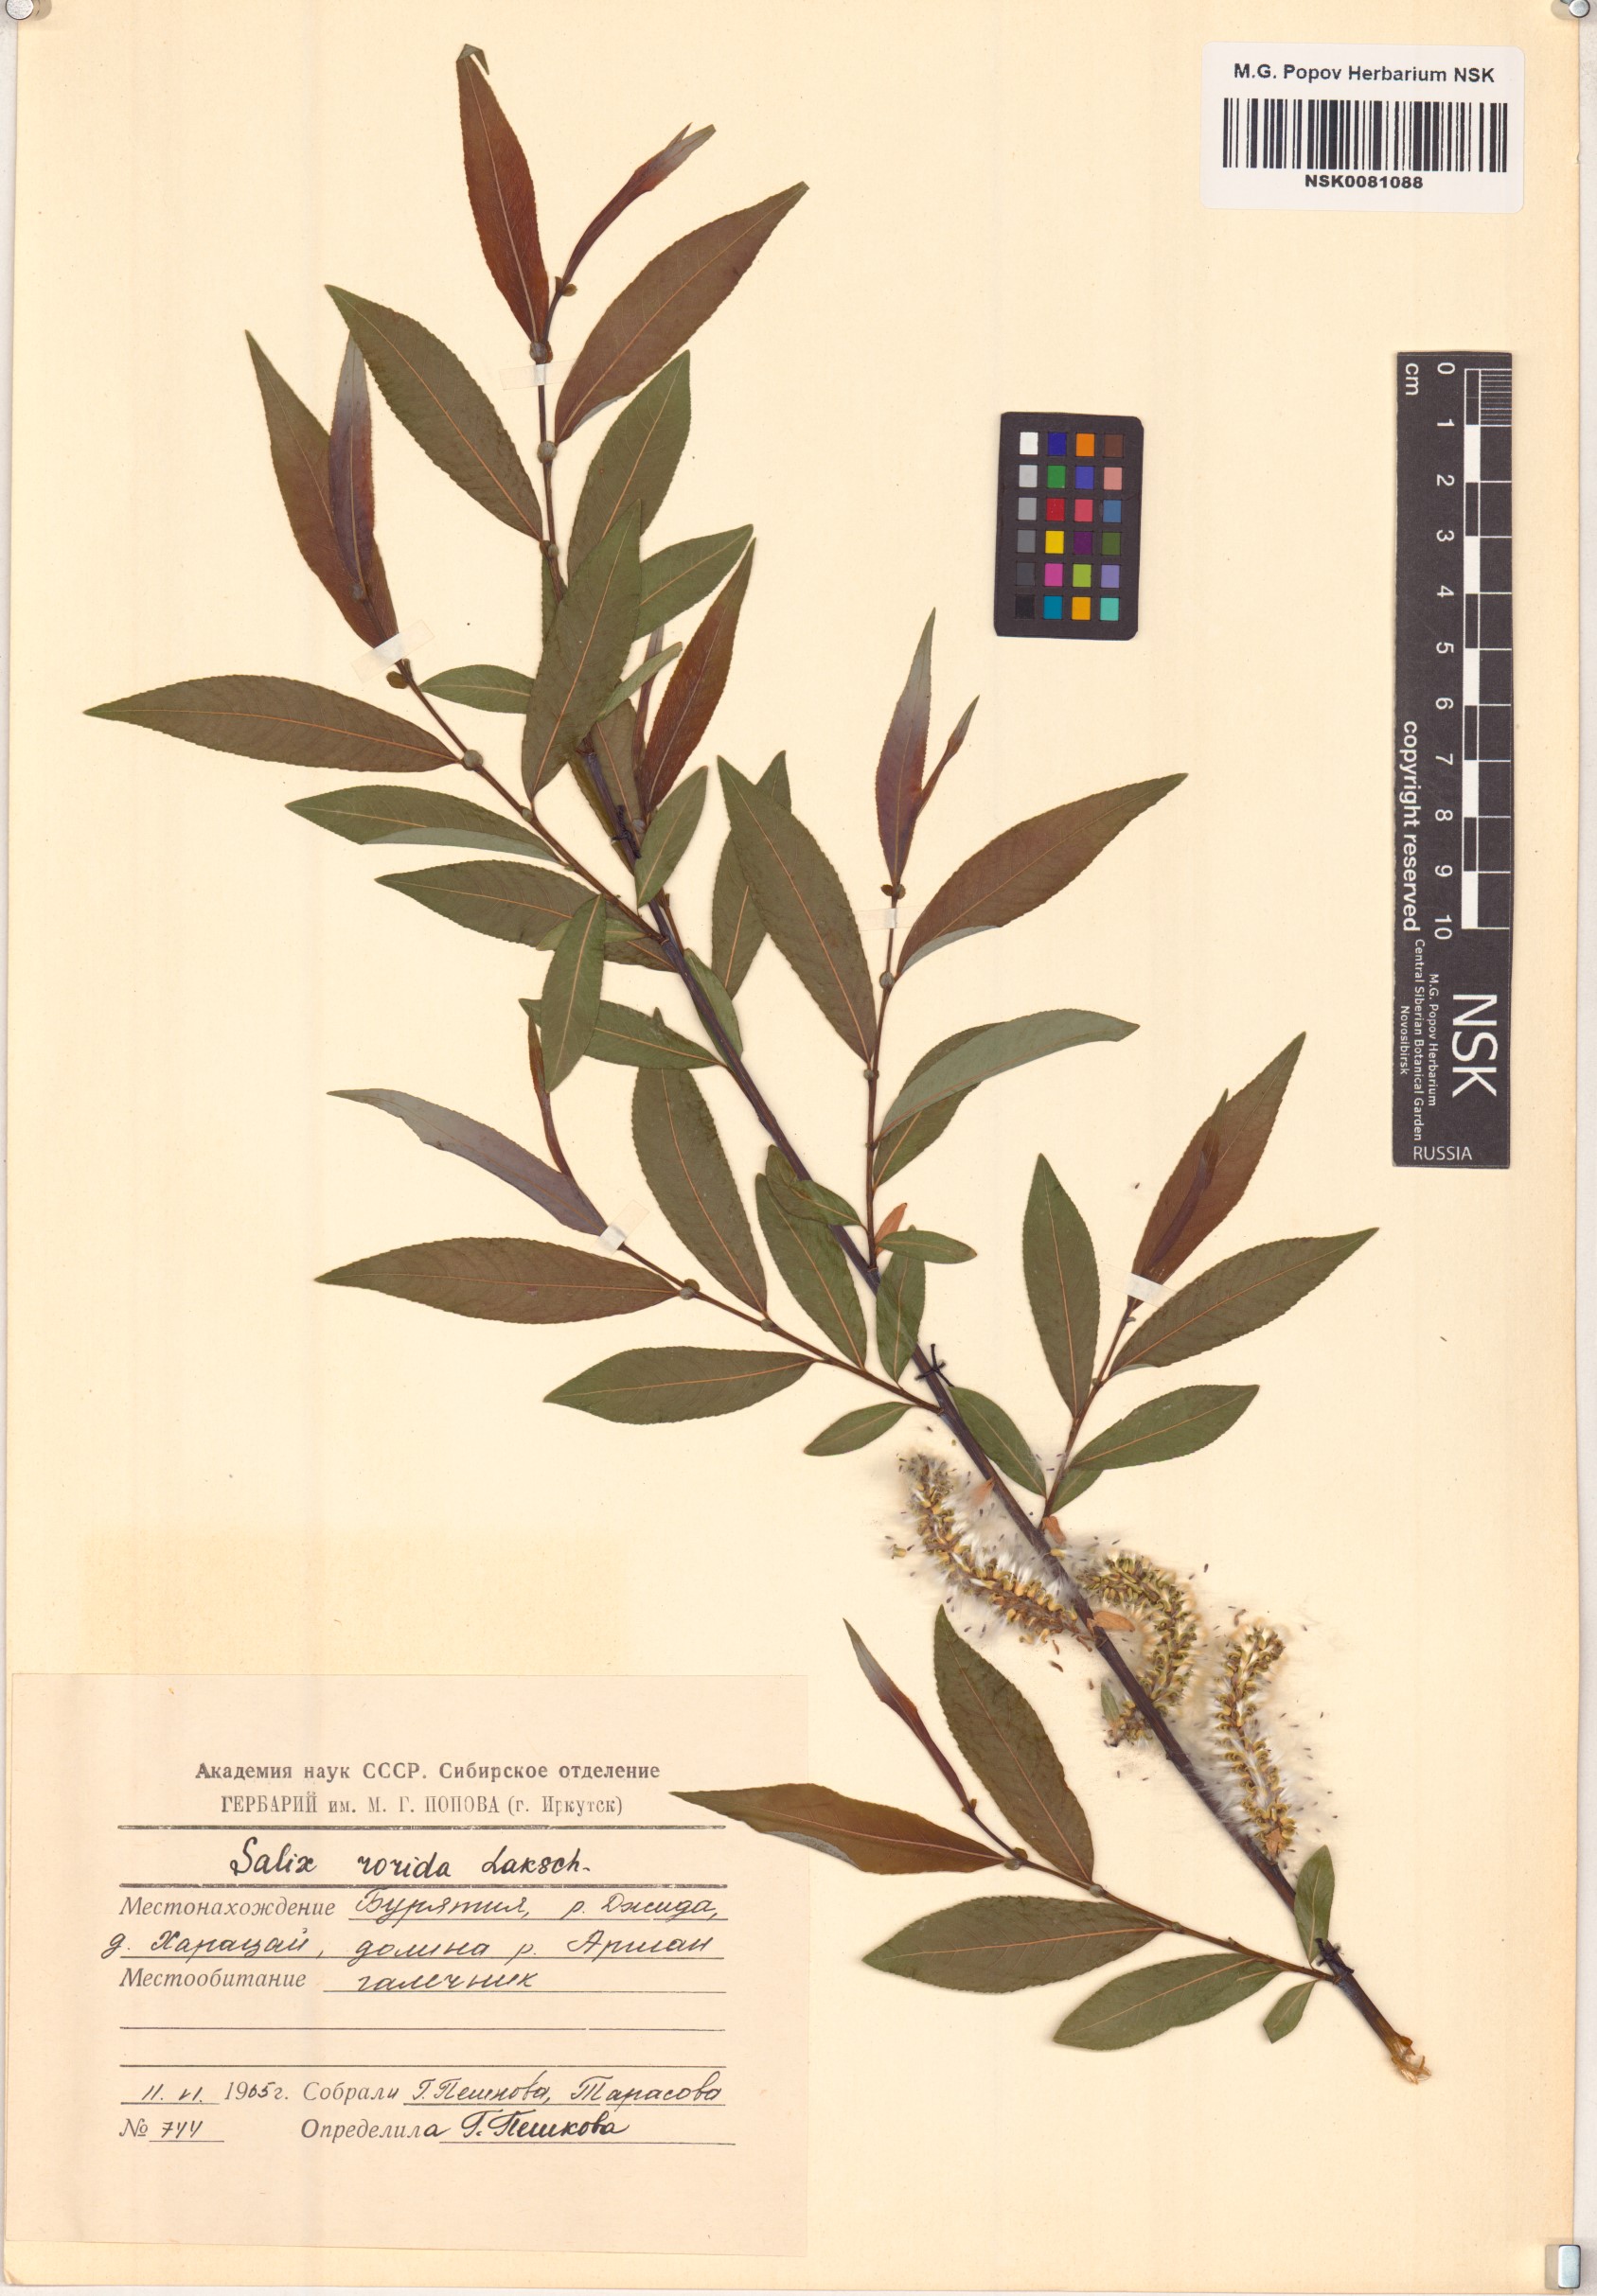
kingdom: Plantae
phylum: Tracheophyta
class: Magnoliopsida
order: Malpighiales
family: Salicaceae
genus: Salix
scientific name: Salix rorida
